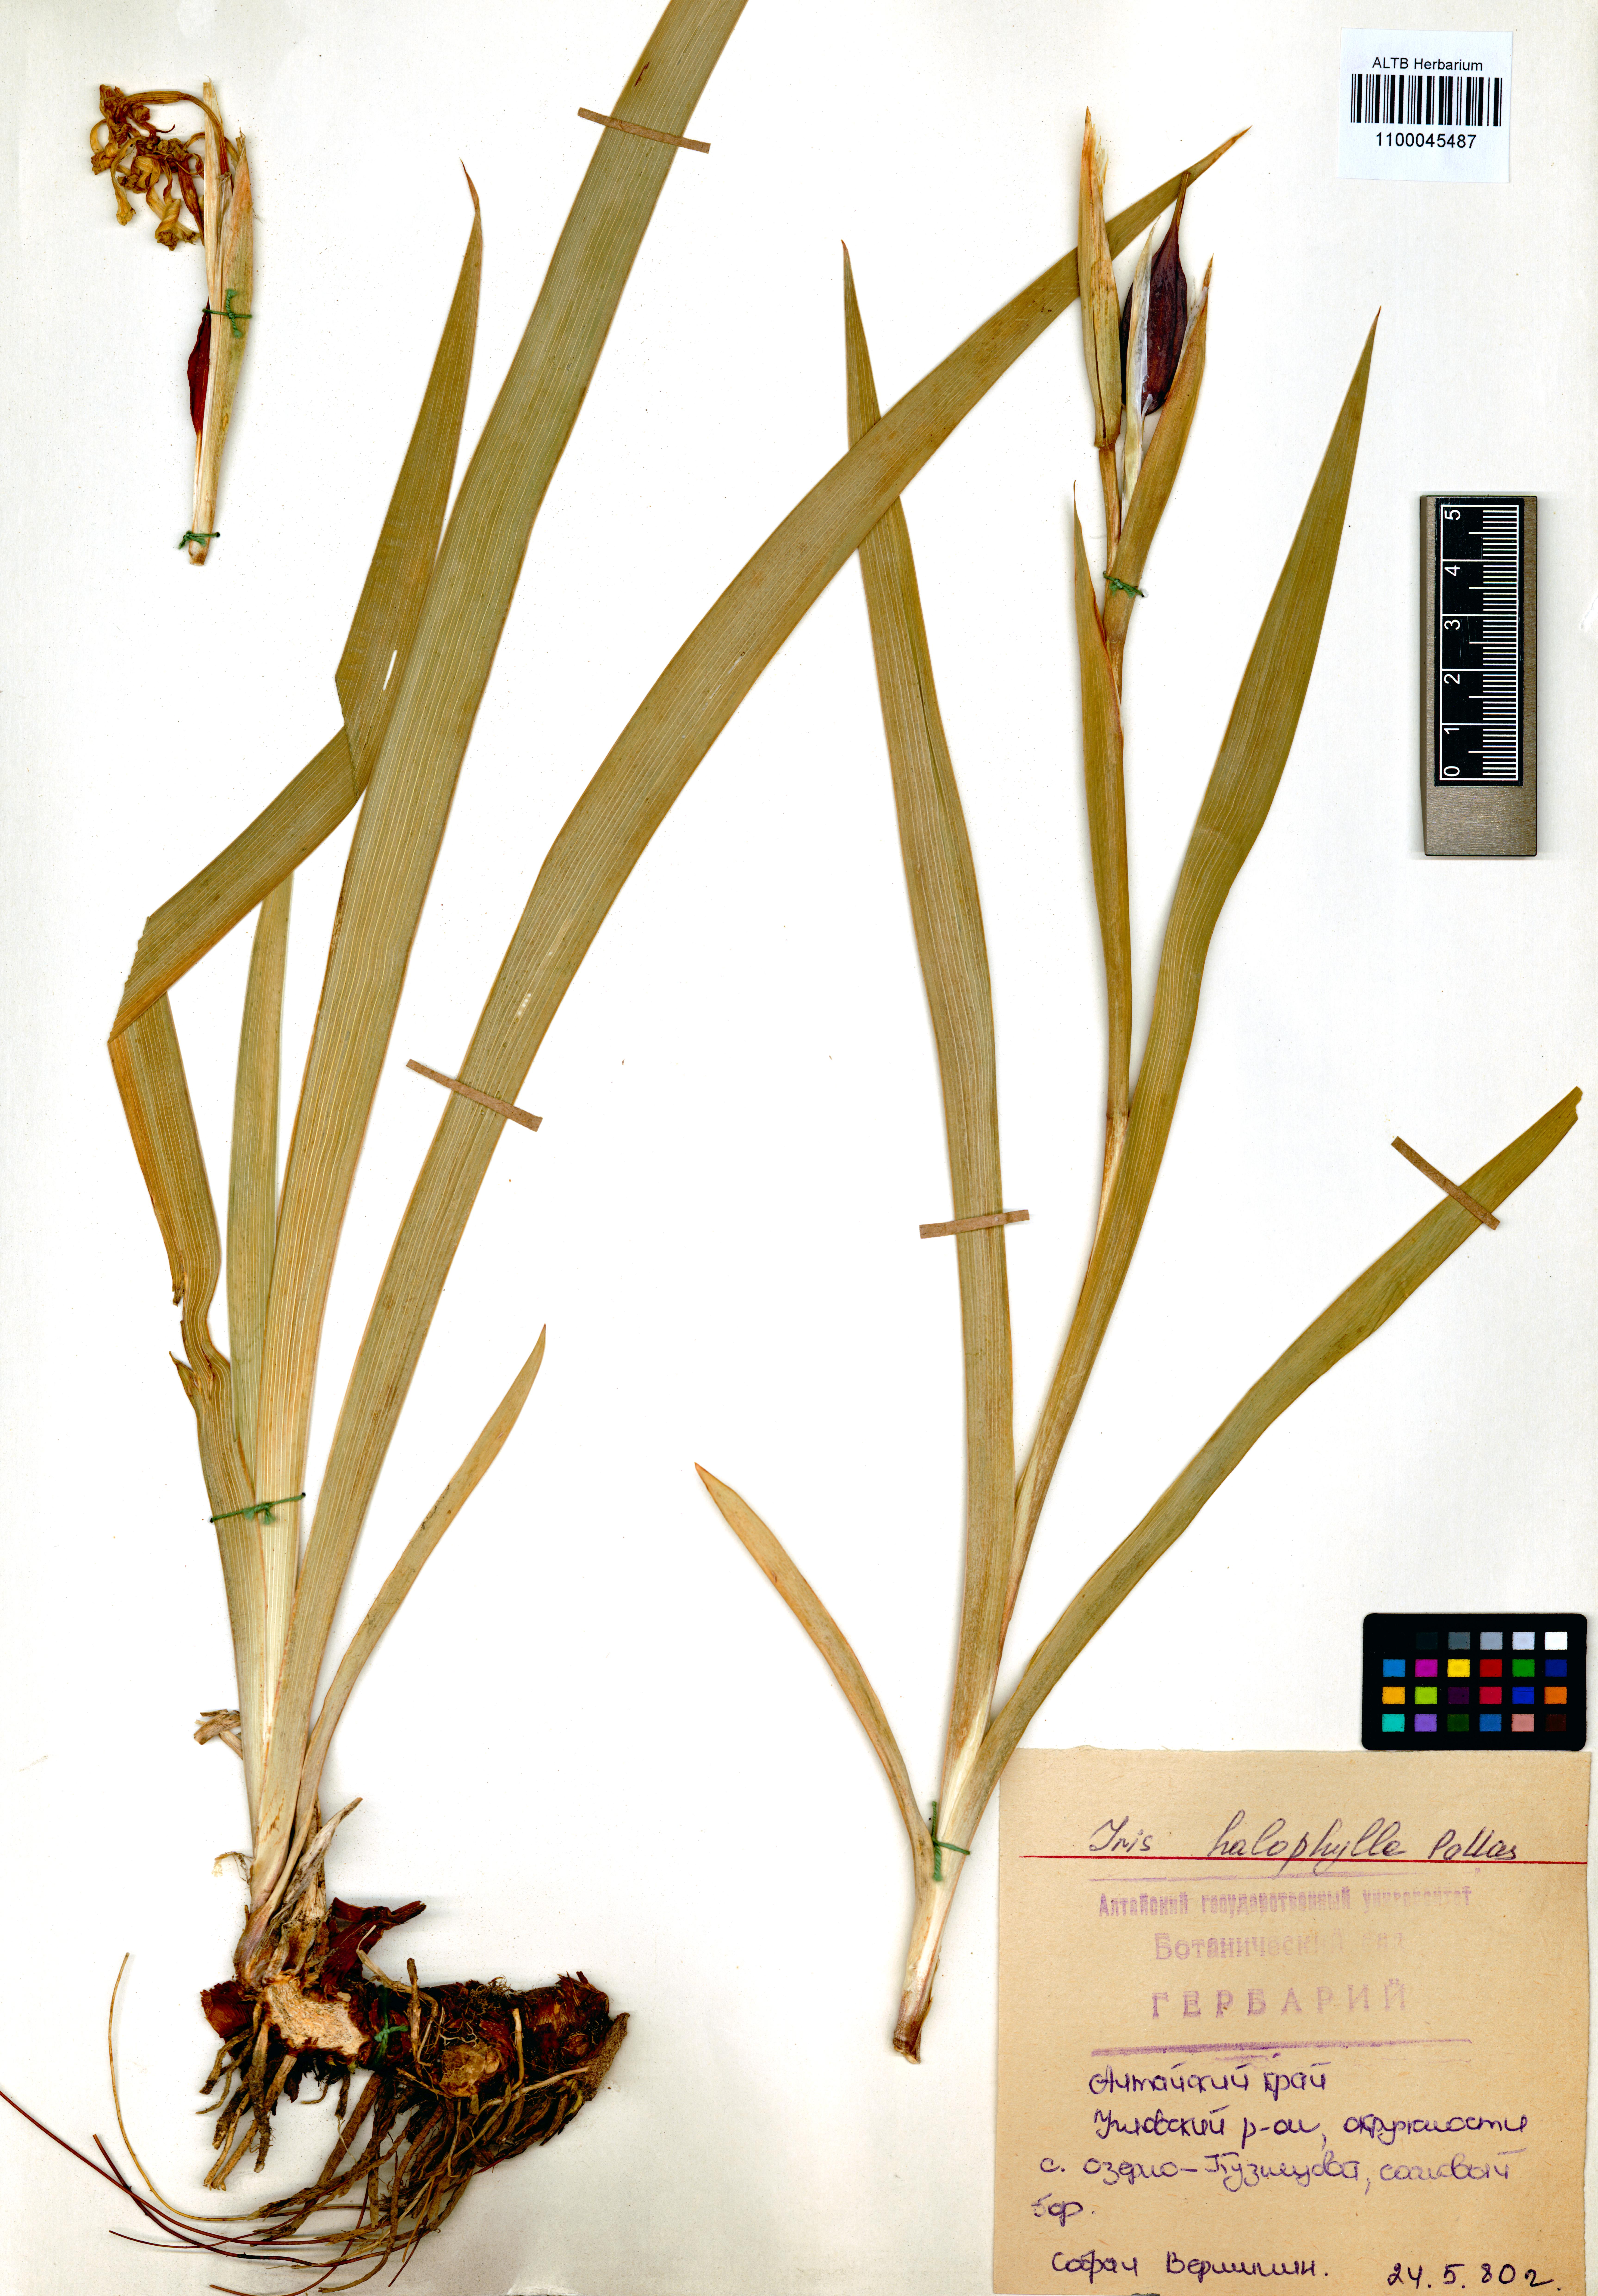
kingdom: Plantae
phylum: Tracheophyta
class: Liliopsida
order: Asparagales
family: Iridaceae
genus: Iris
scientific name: Iris halophila
